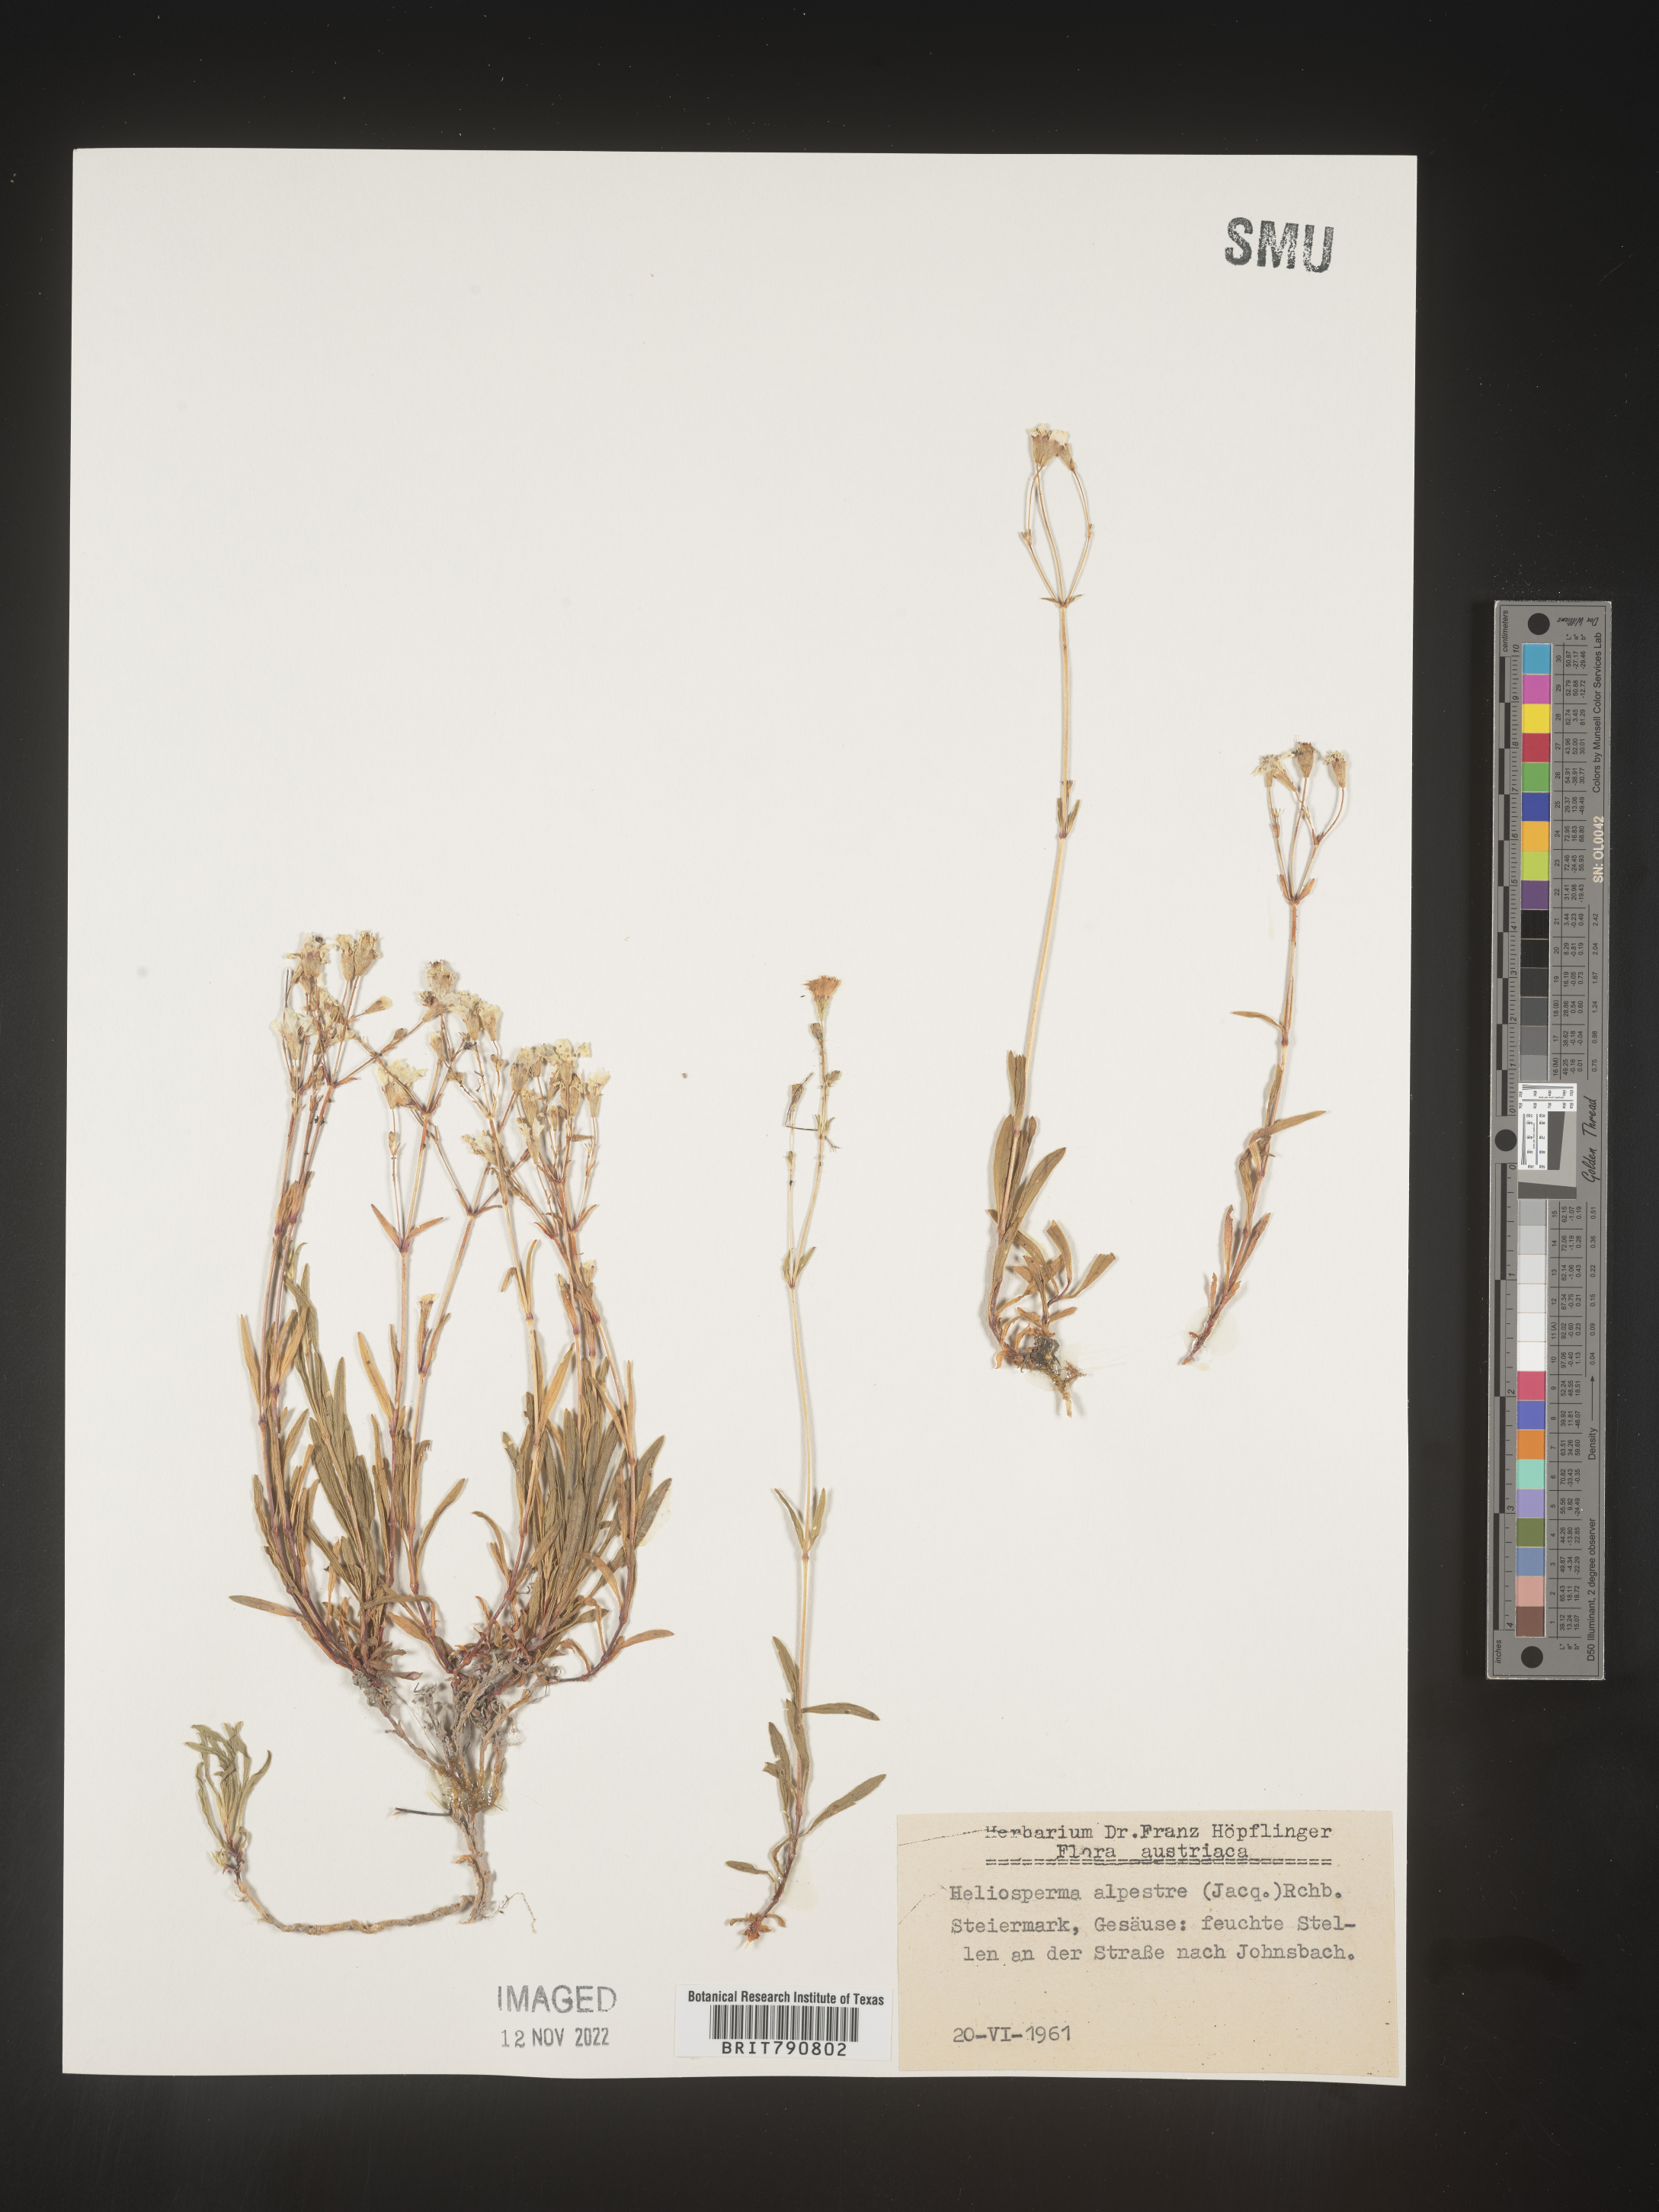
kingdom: Plantae
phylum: Tracheophyta
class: Magnoliopsida
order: Caryophyllales
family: Caryophyllaceae
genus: Heliosperma
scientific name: Heliosperma
